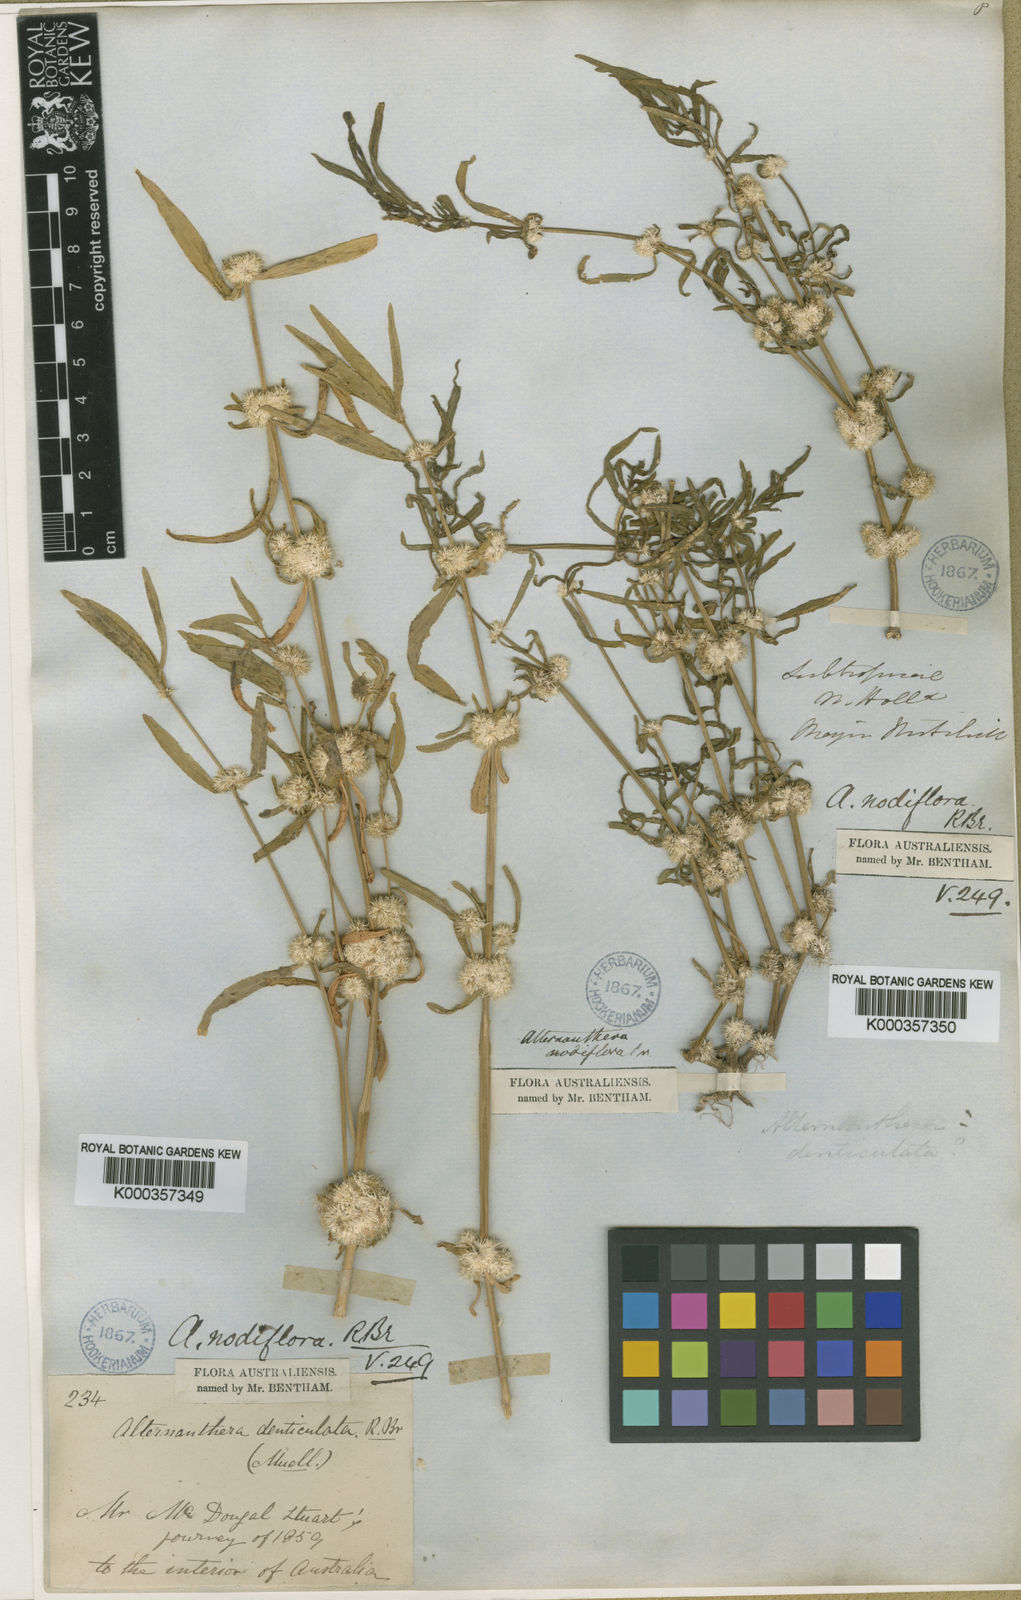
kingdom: Plantae
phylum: Tracheophyta
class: Magnoliopsida
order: Caryophyllales
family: Amaranthaceae
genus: Alternanthera
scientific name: Alternanthera sessilis
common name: Sessile joyweed
